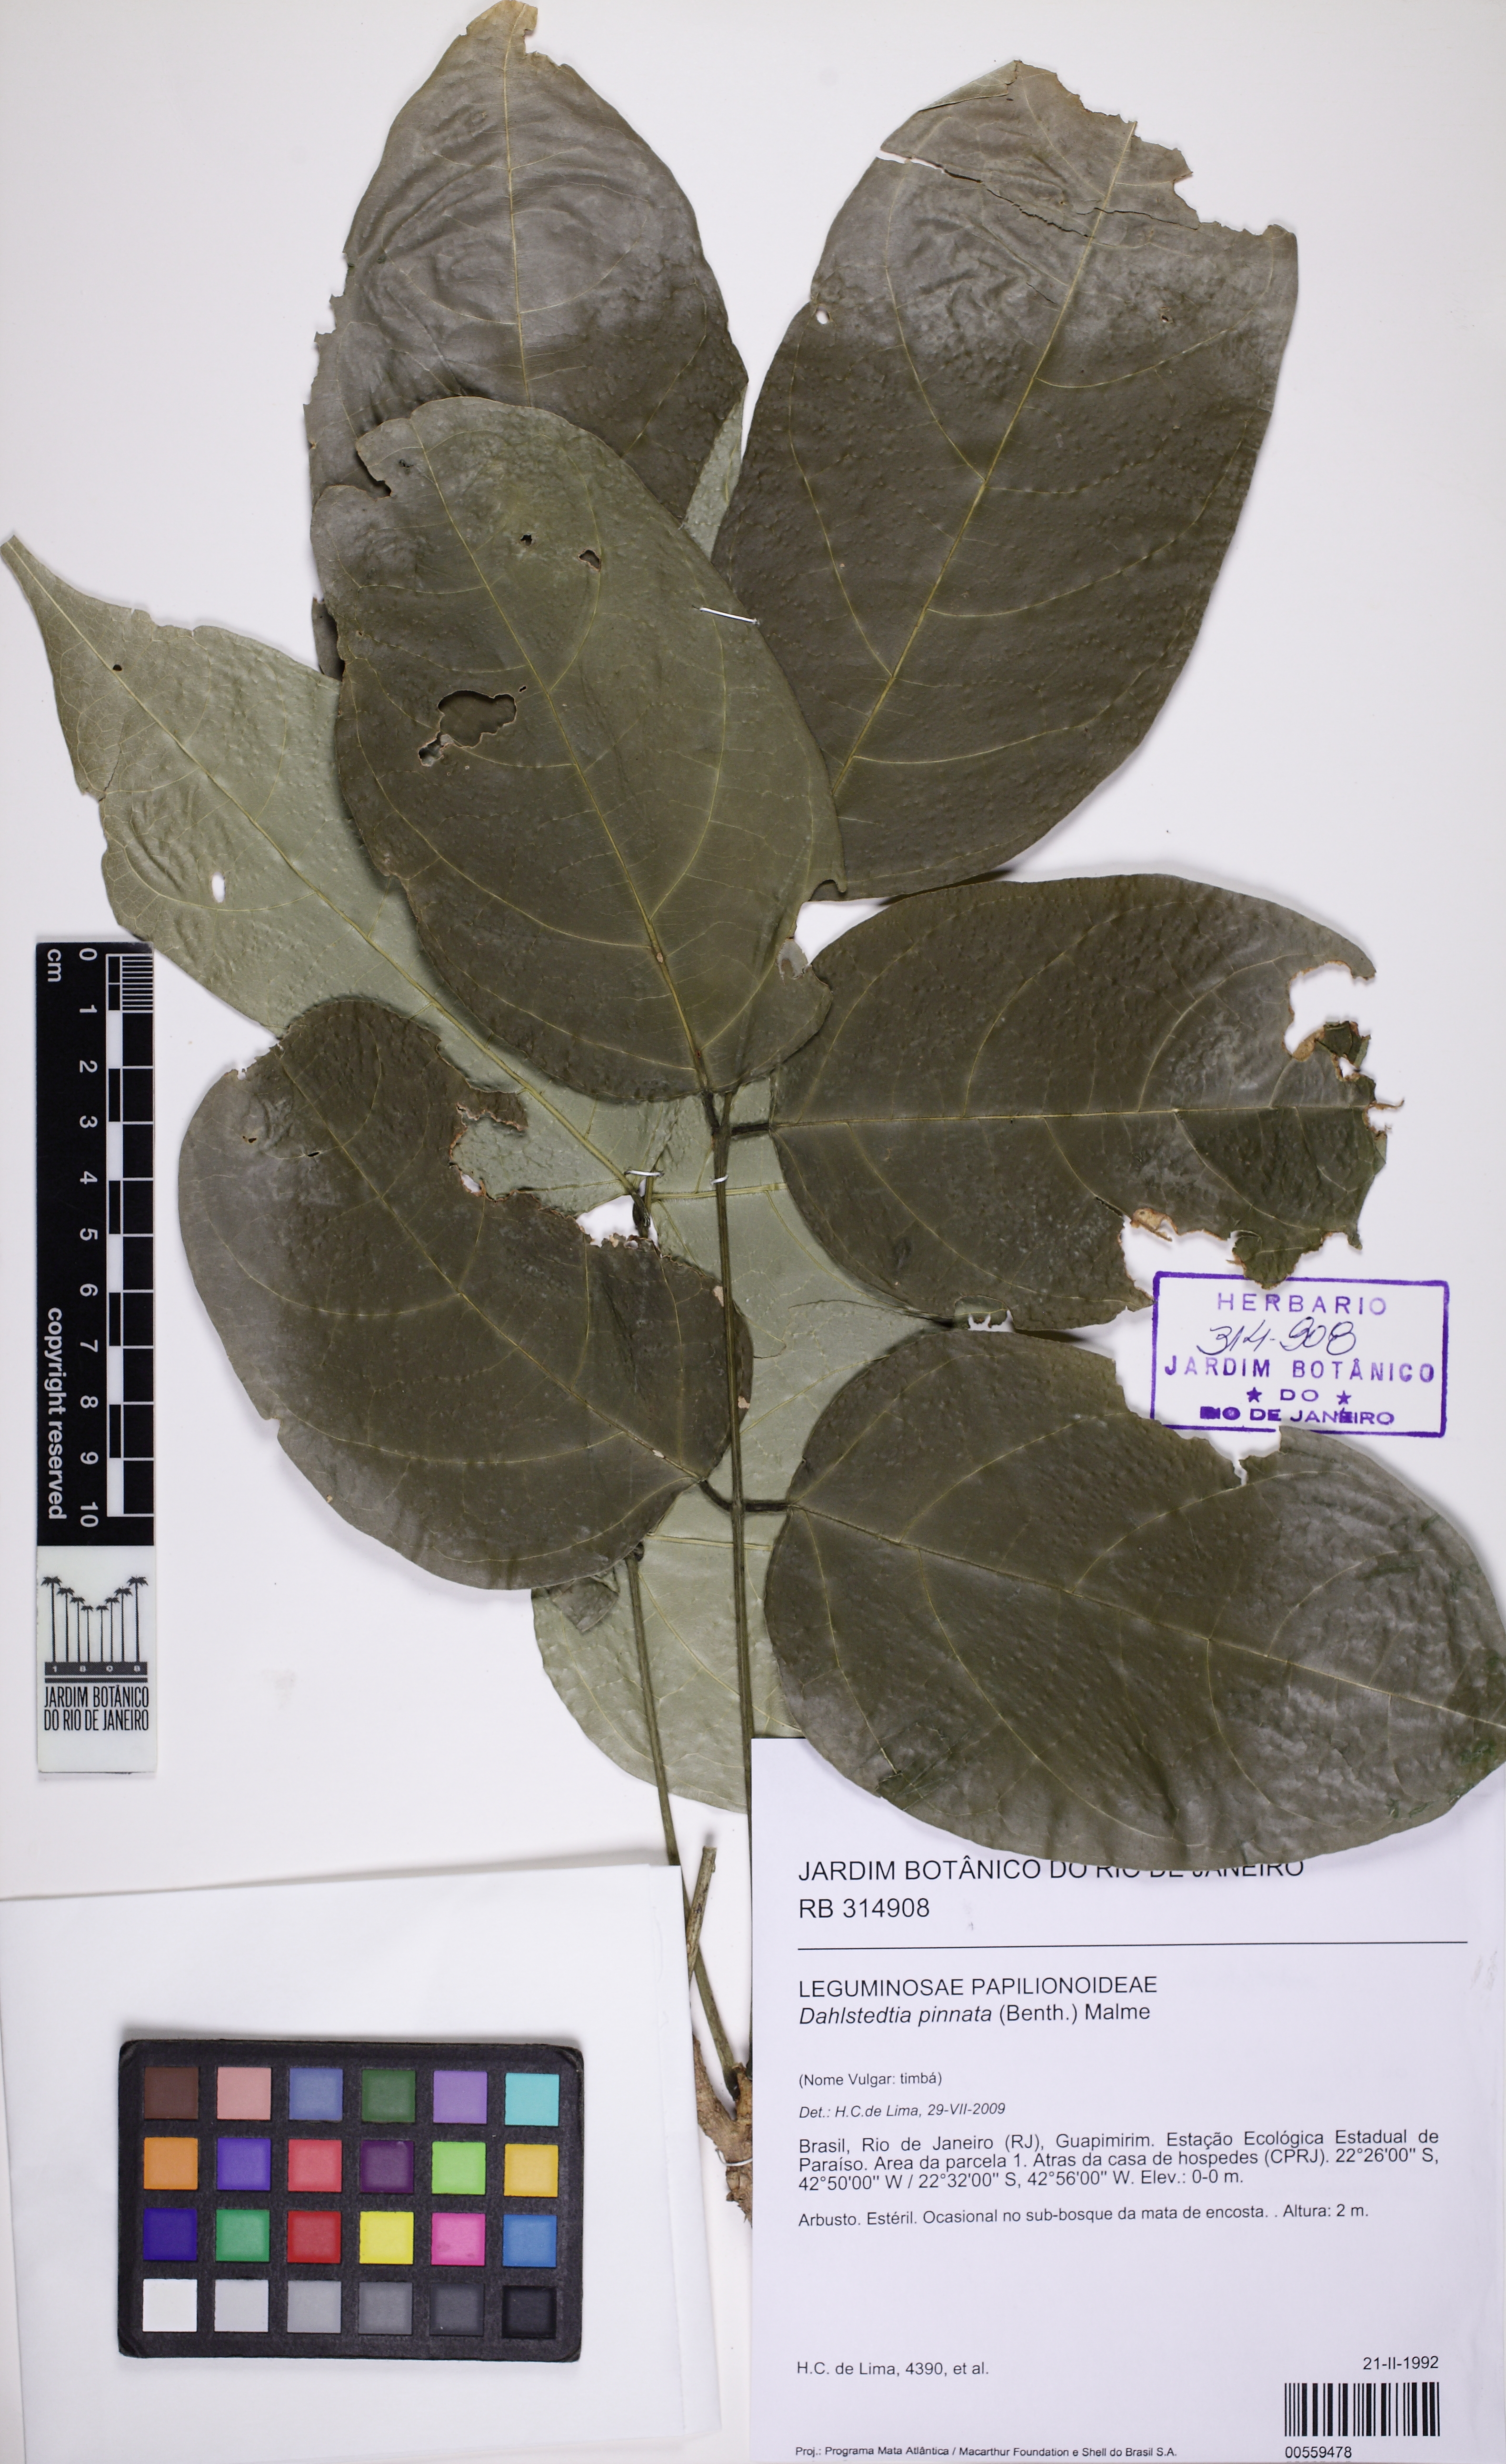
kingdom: Plantae
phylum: Tracheophyta
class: Magnoliopsida
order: Fabales
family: Fabaceae
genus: Dahlstedtia
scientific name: Dahlstedtia pinnata
